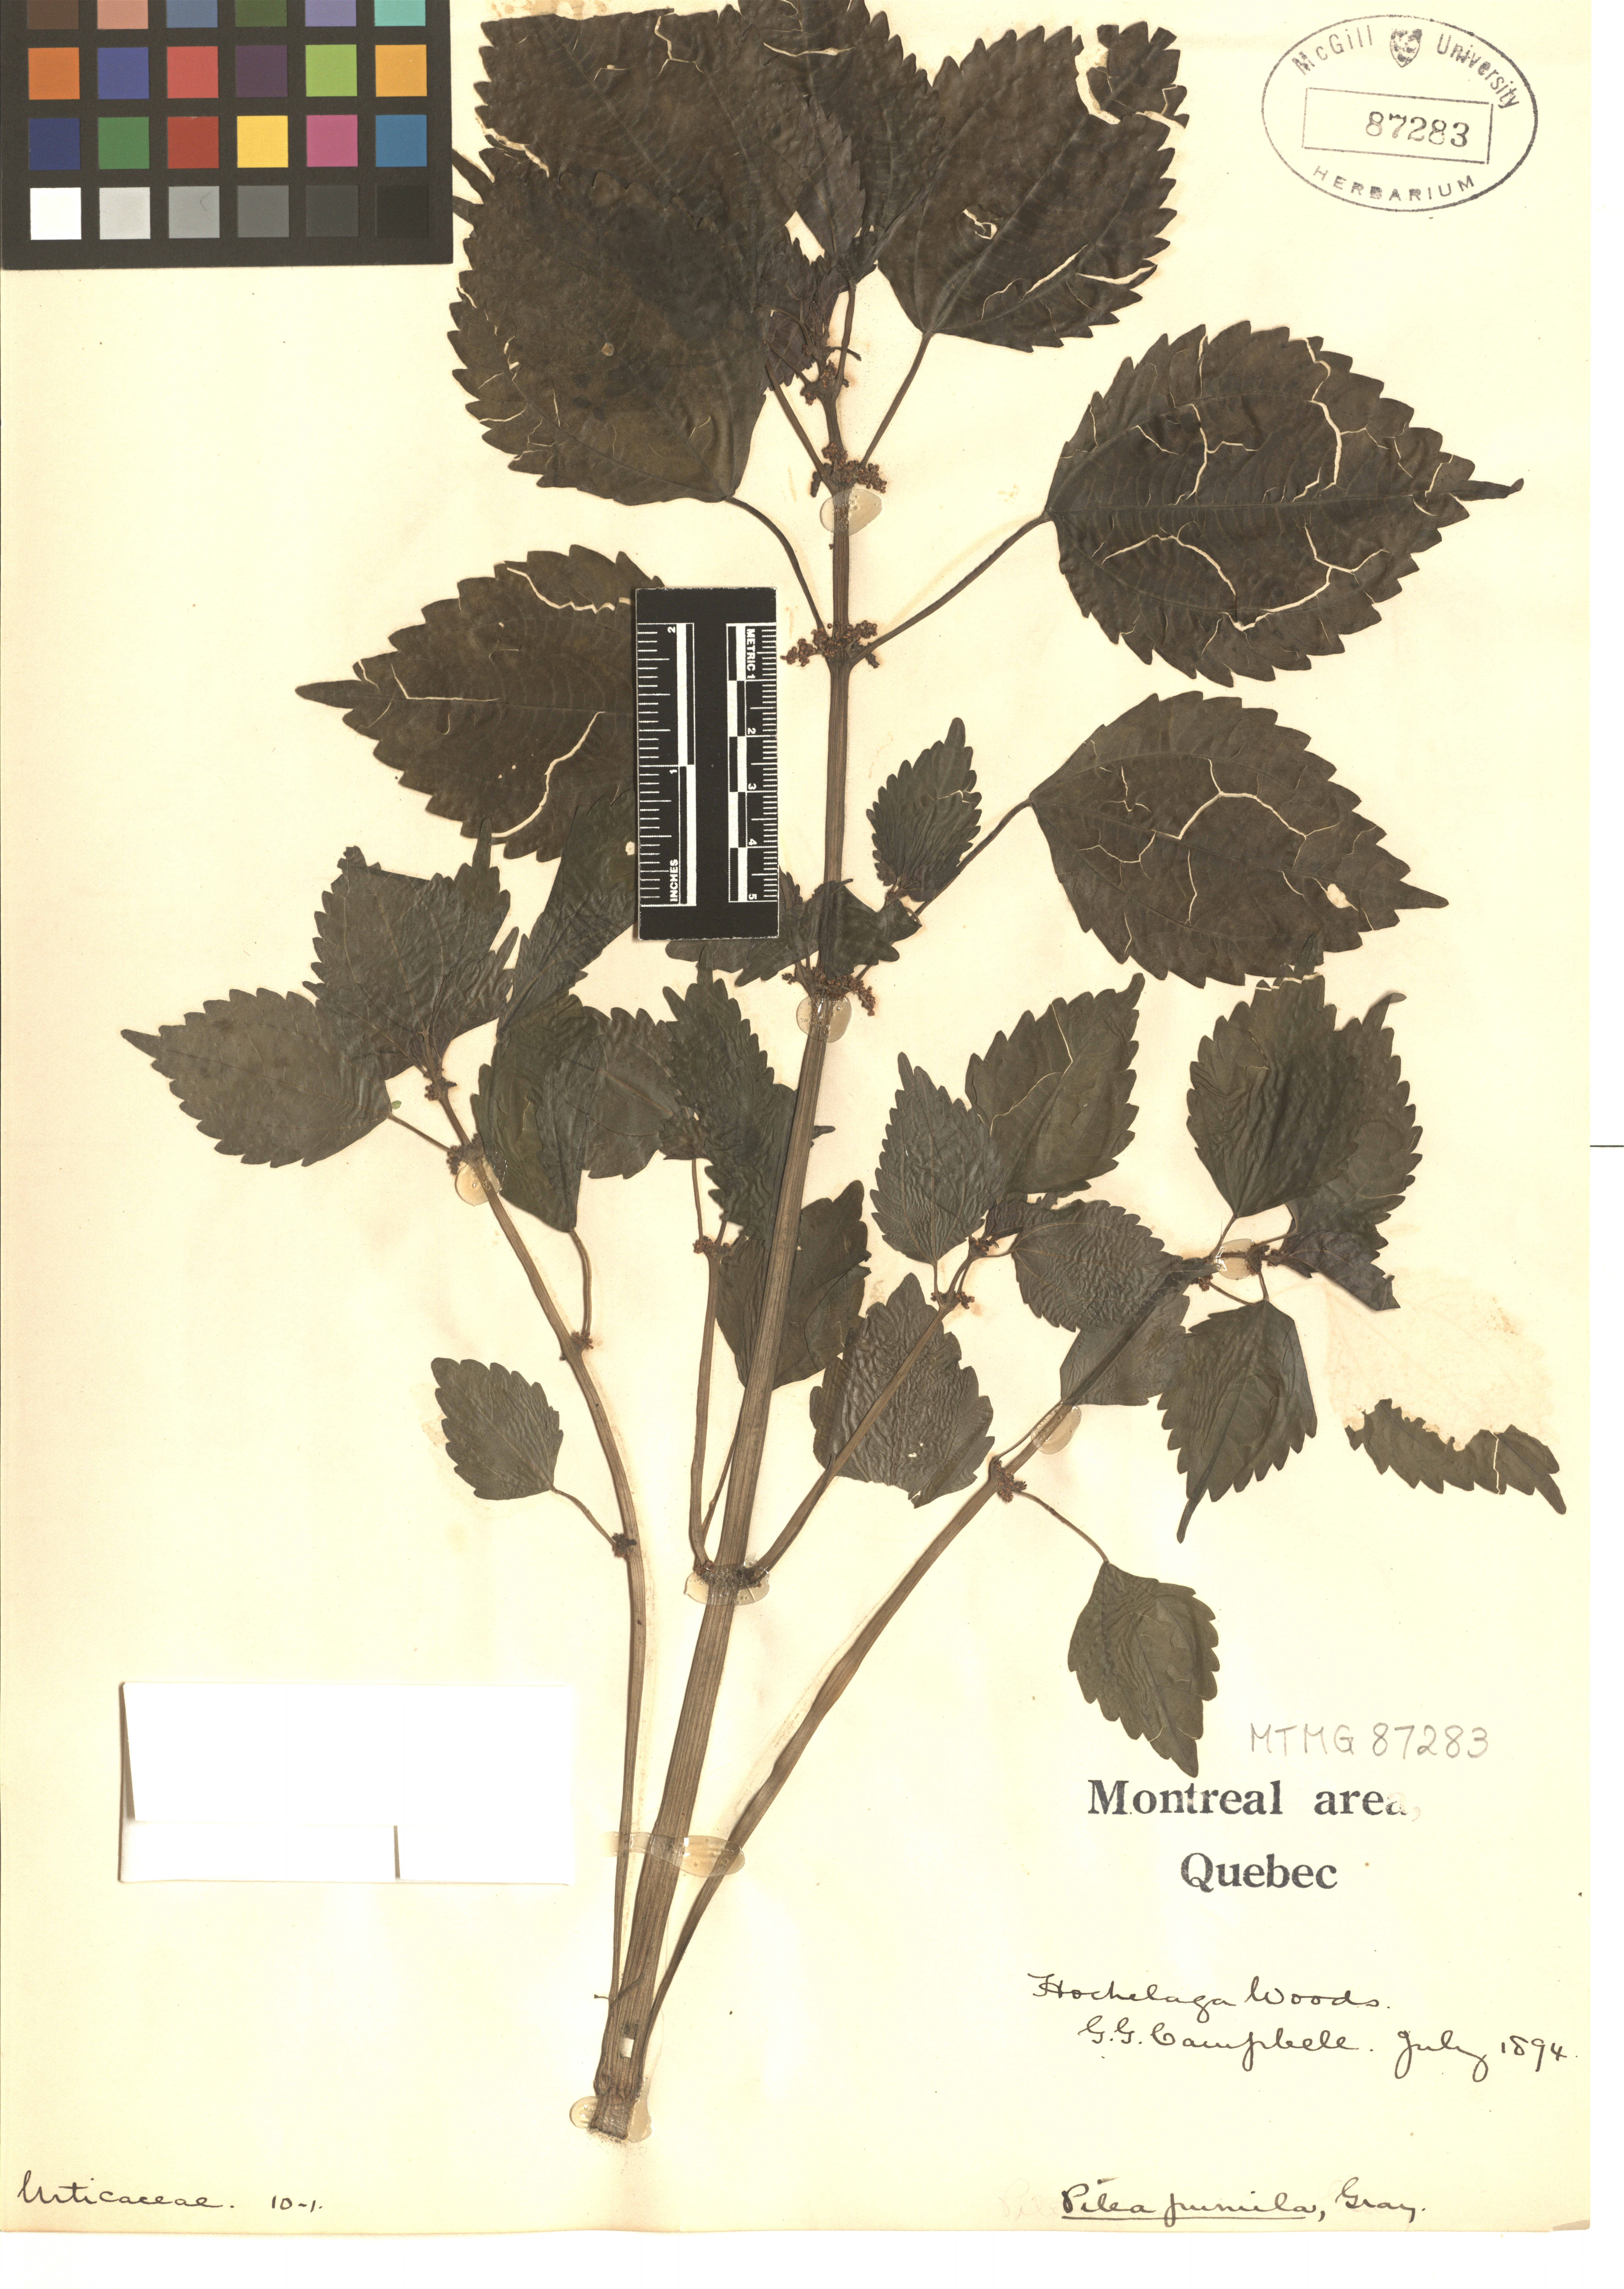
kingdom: Plantae
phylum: Tracheophyta
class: Magnoliopsida
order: Rosales
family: Urticaceae
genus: Pilea
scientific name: Pilea pumila
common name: Clearweed
